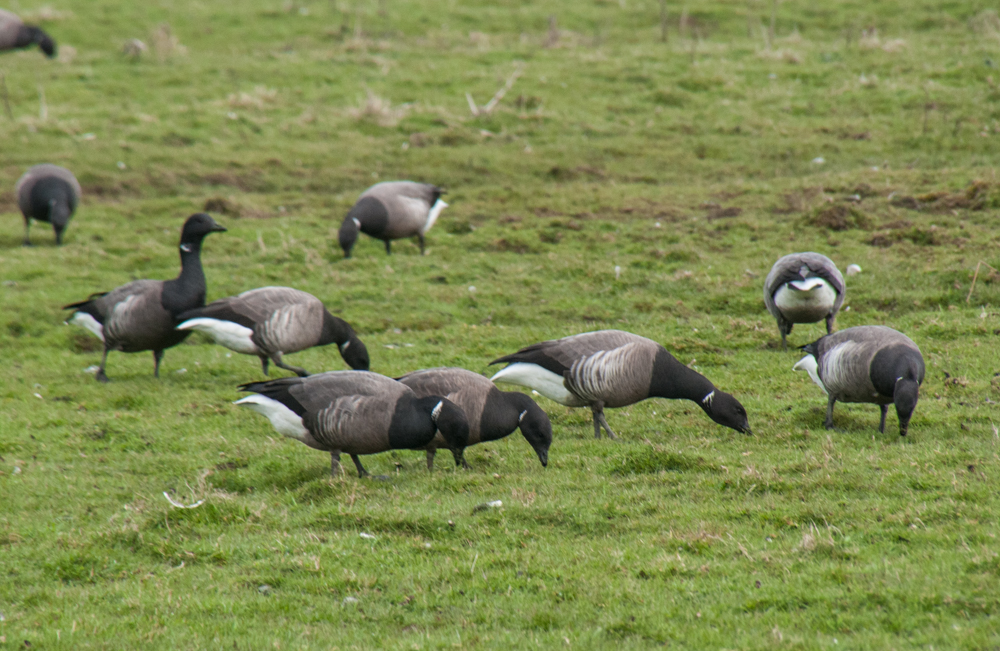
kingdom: Animalia
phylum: Chordata
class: Aves
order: Anseriformes
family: Anatidae
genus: Branta
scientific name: Branta bernicla
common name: Brant goose
